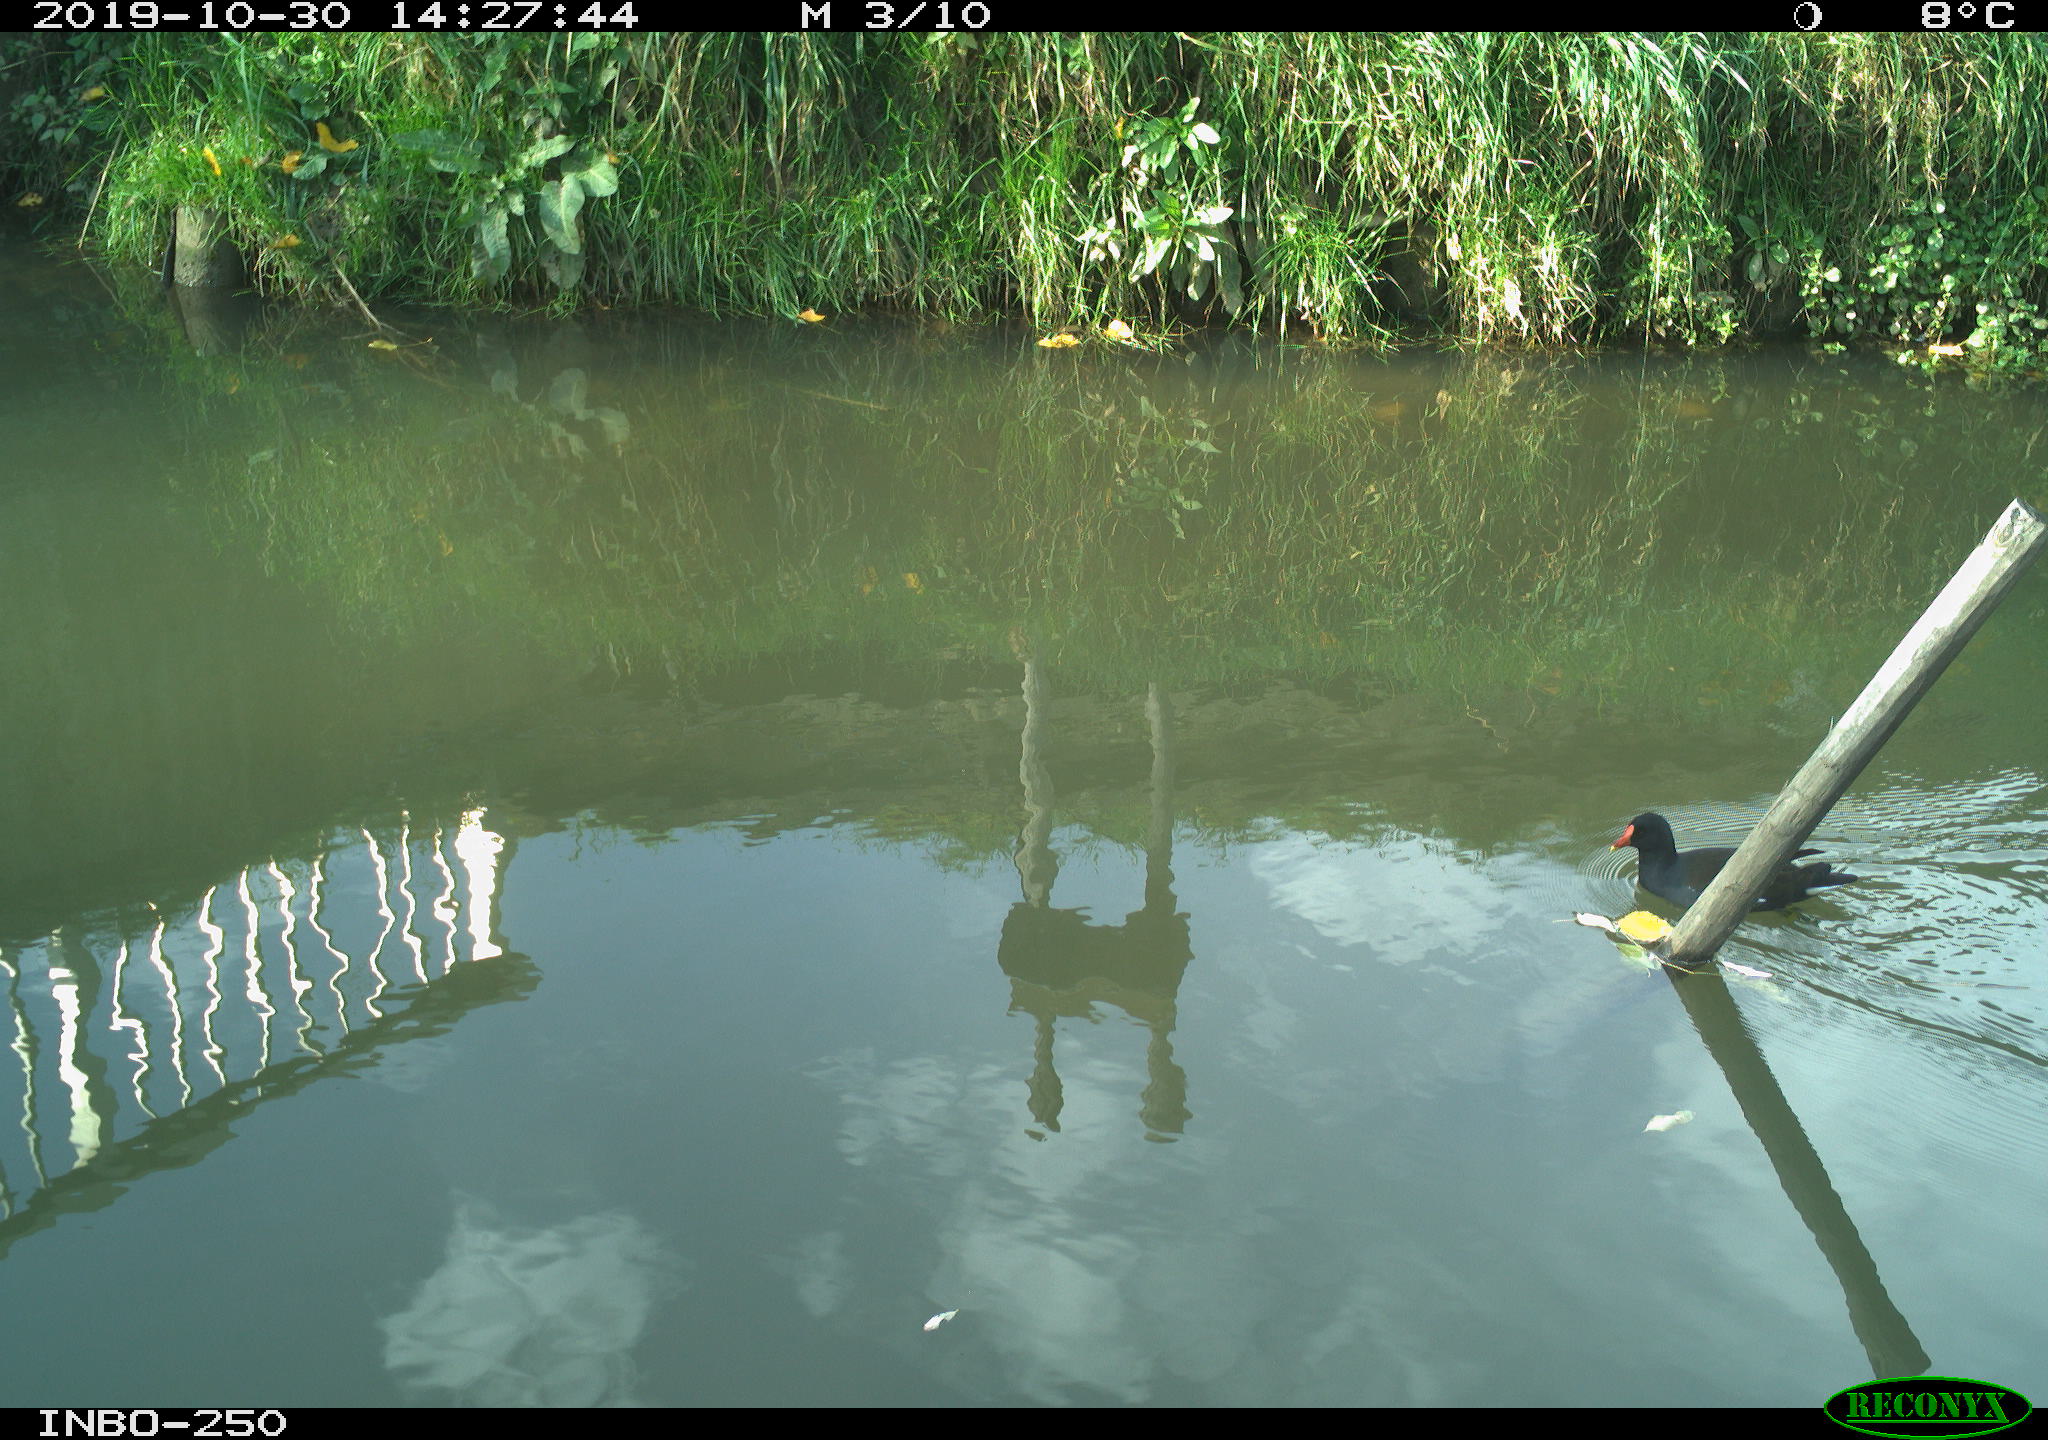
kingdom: Animalia
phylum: Chordata
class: Aves
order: Gruiformes
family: Rallidae
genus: Gallinula
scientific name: Gallinula chloropus
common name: Common moorhen
